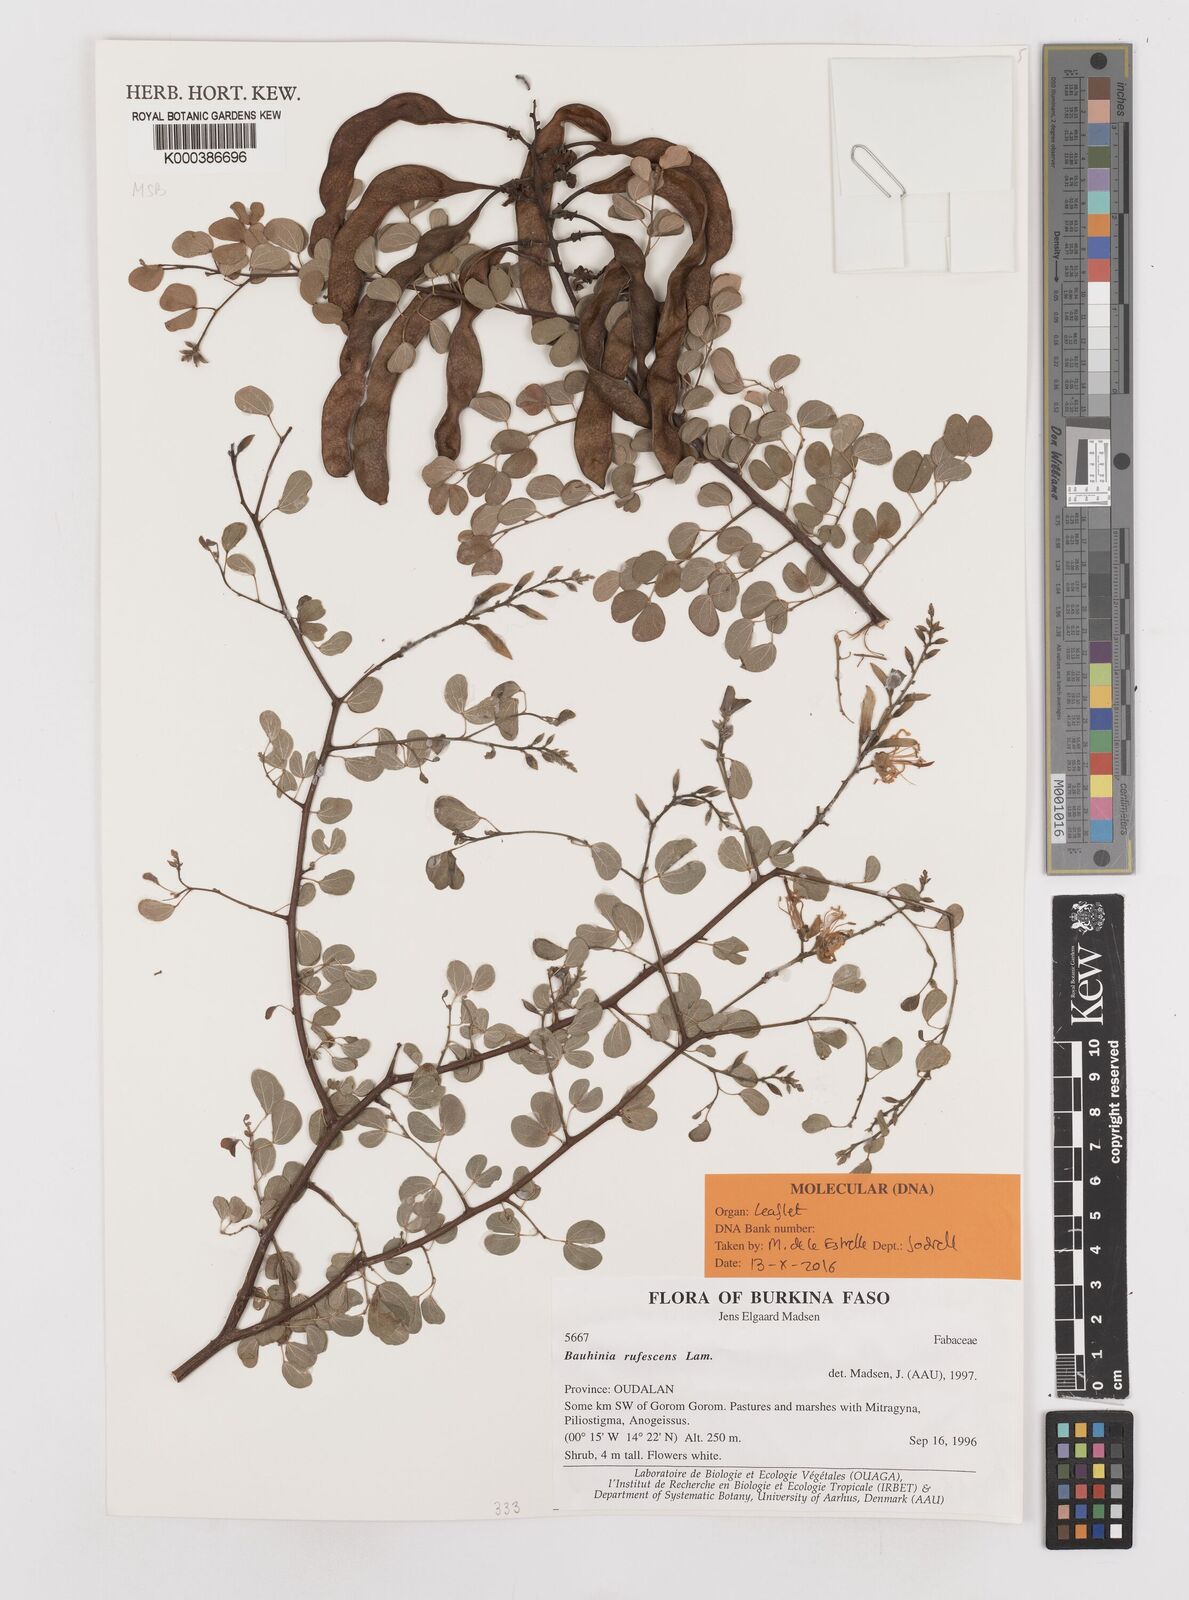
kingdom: Plantae
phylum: Tracheophyta
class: Magnoliopsida
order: Fabales
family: Fabaceae
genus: Bauhinia
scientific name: Bauhinia rufescens
